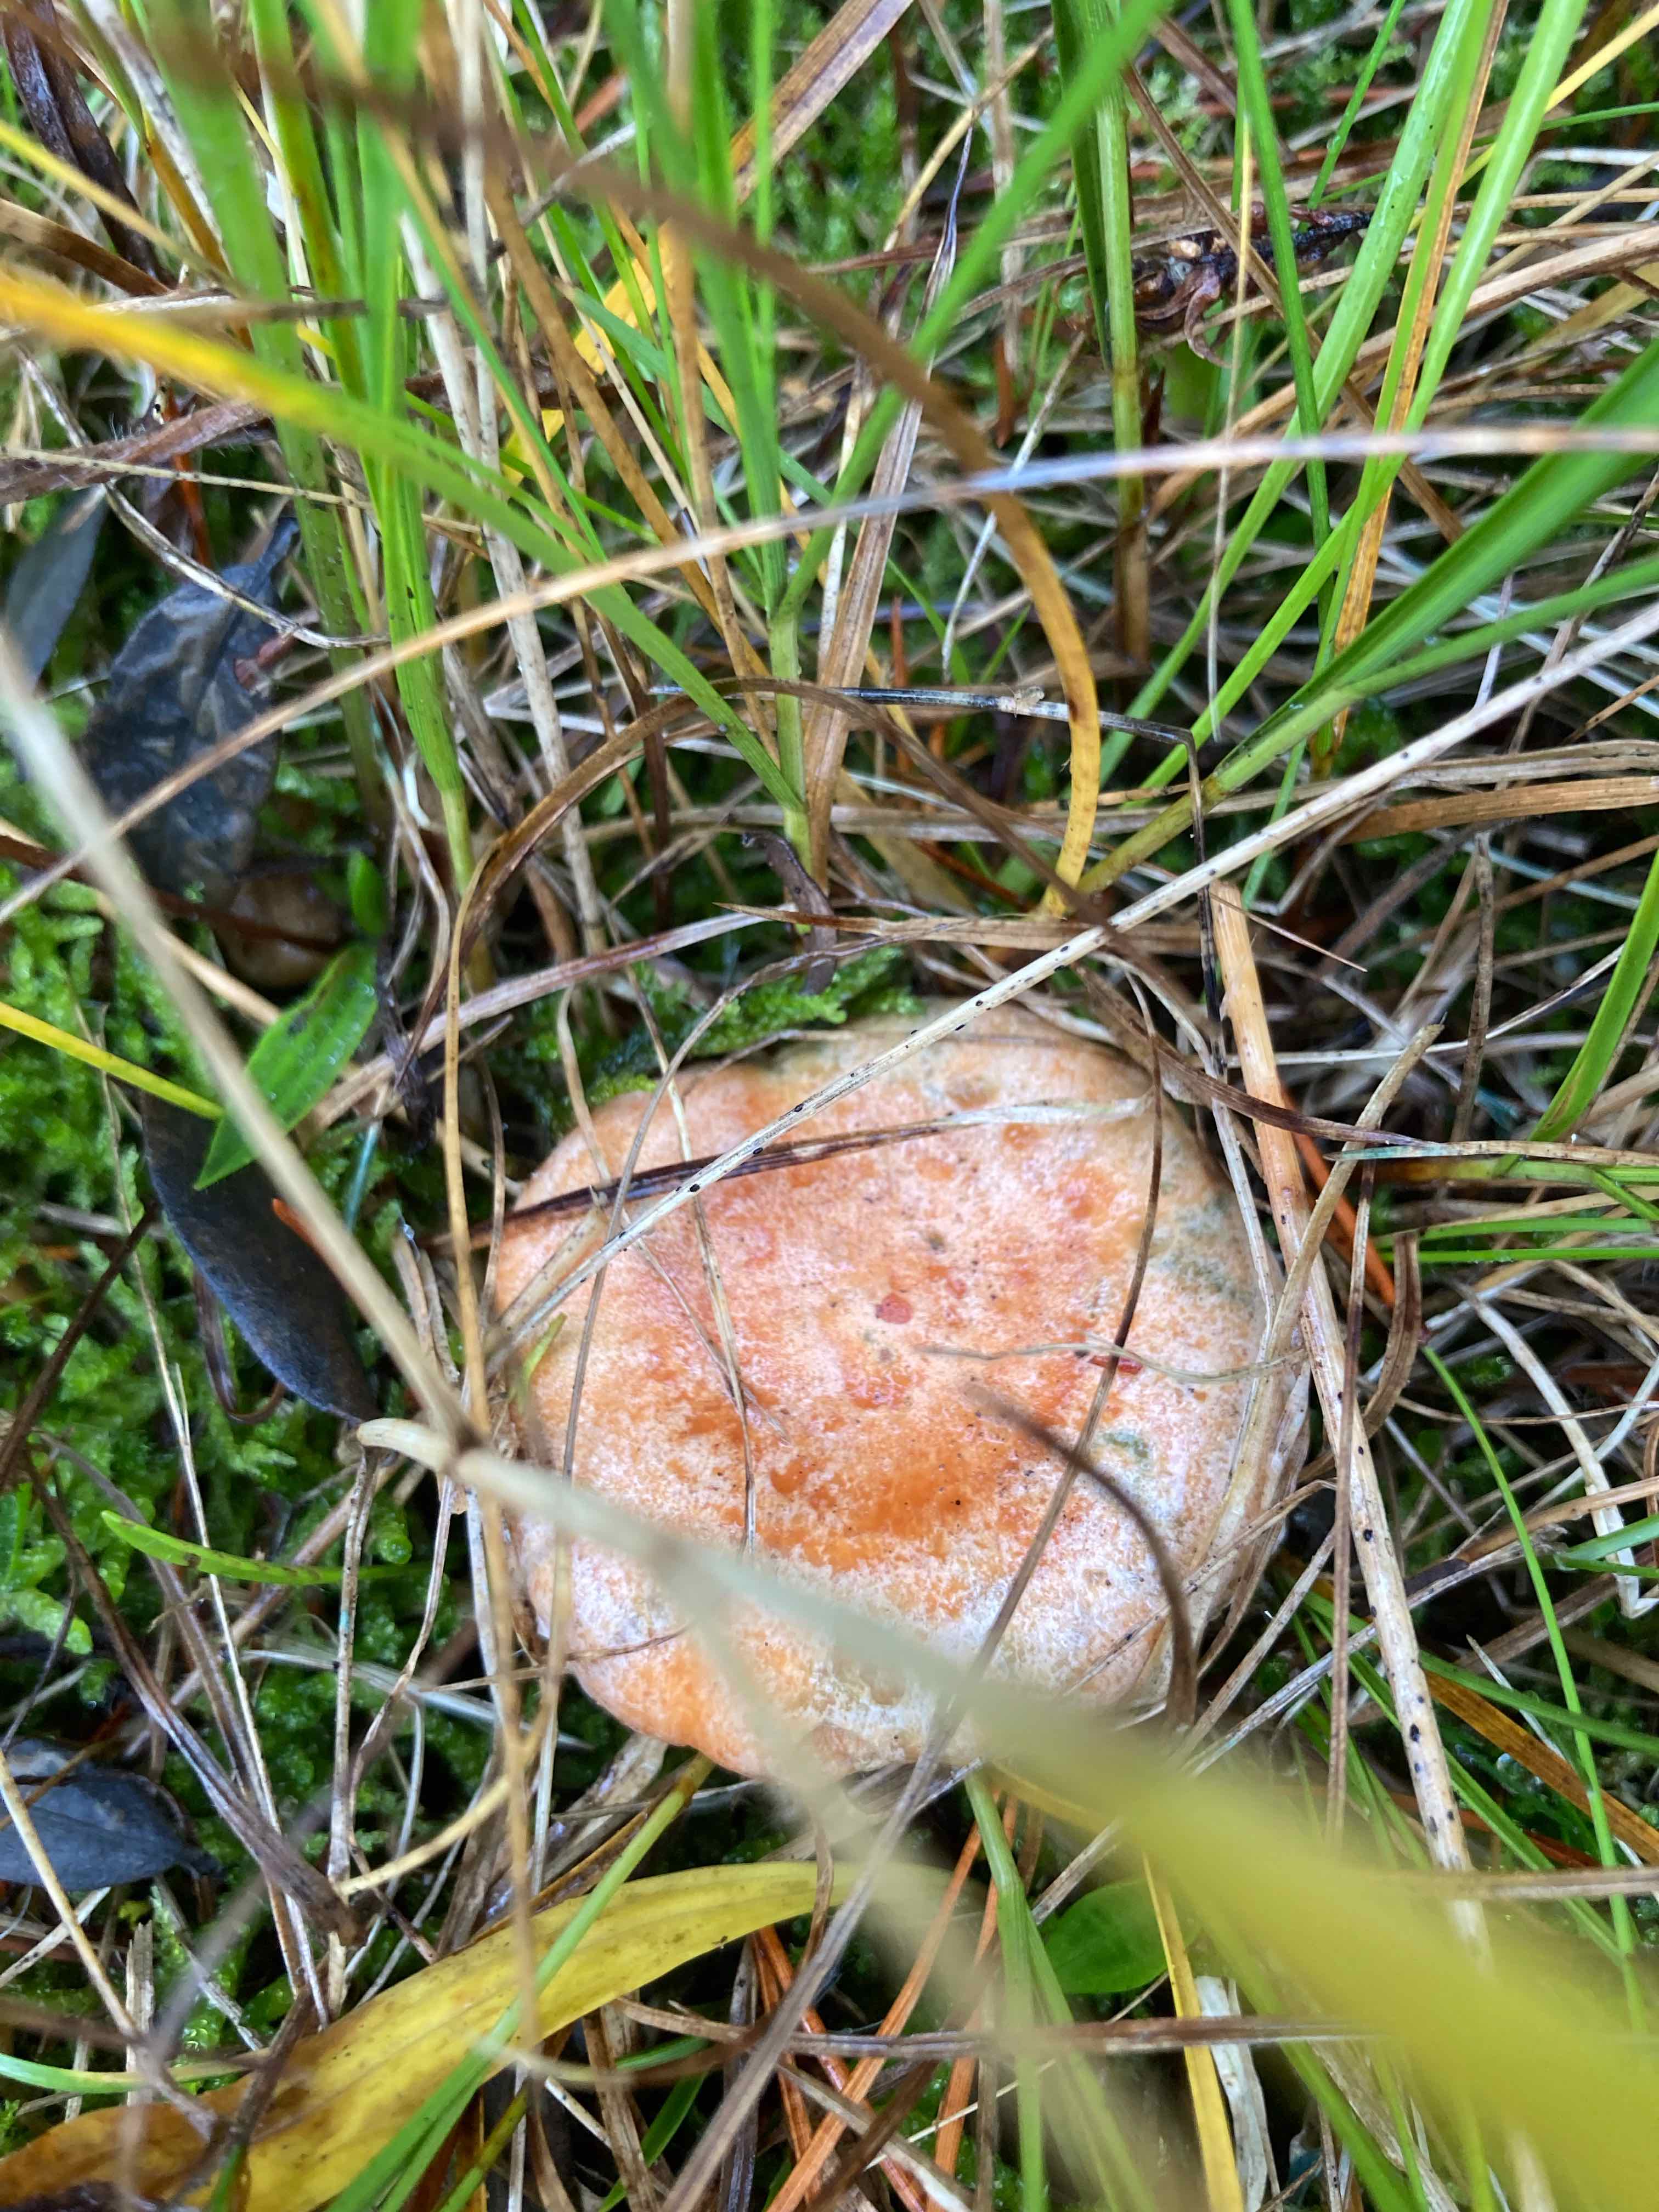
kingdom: Fungi
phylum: Basidiomycota
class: Agaricomycetes
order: Russulales
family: Russulaceae
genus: Lactarius
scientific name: Lactarius deliciosus
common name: velsmagende mælkehat
